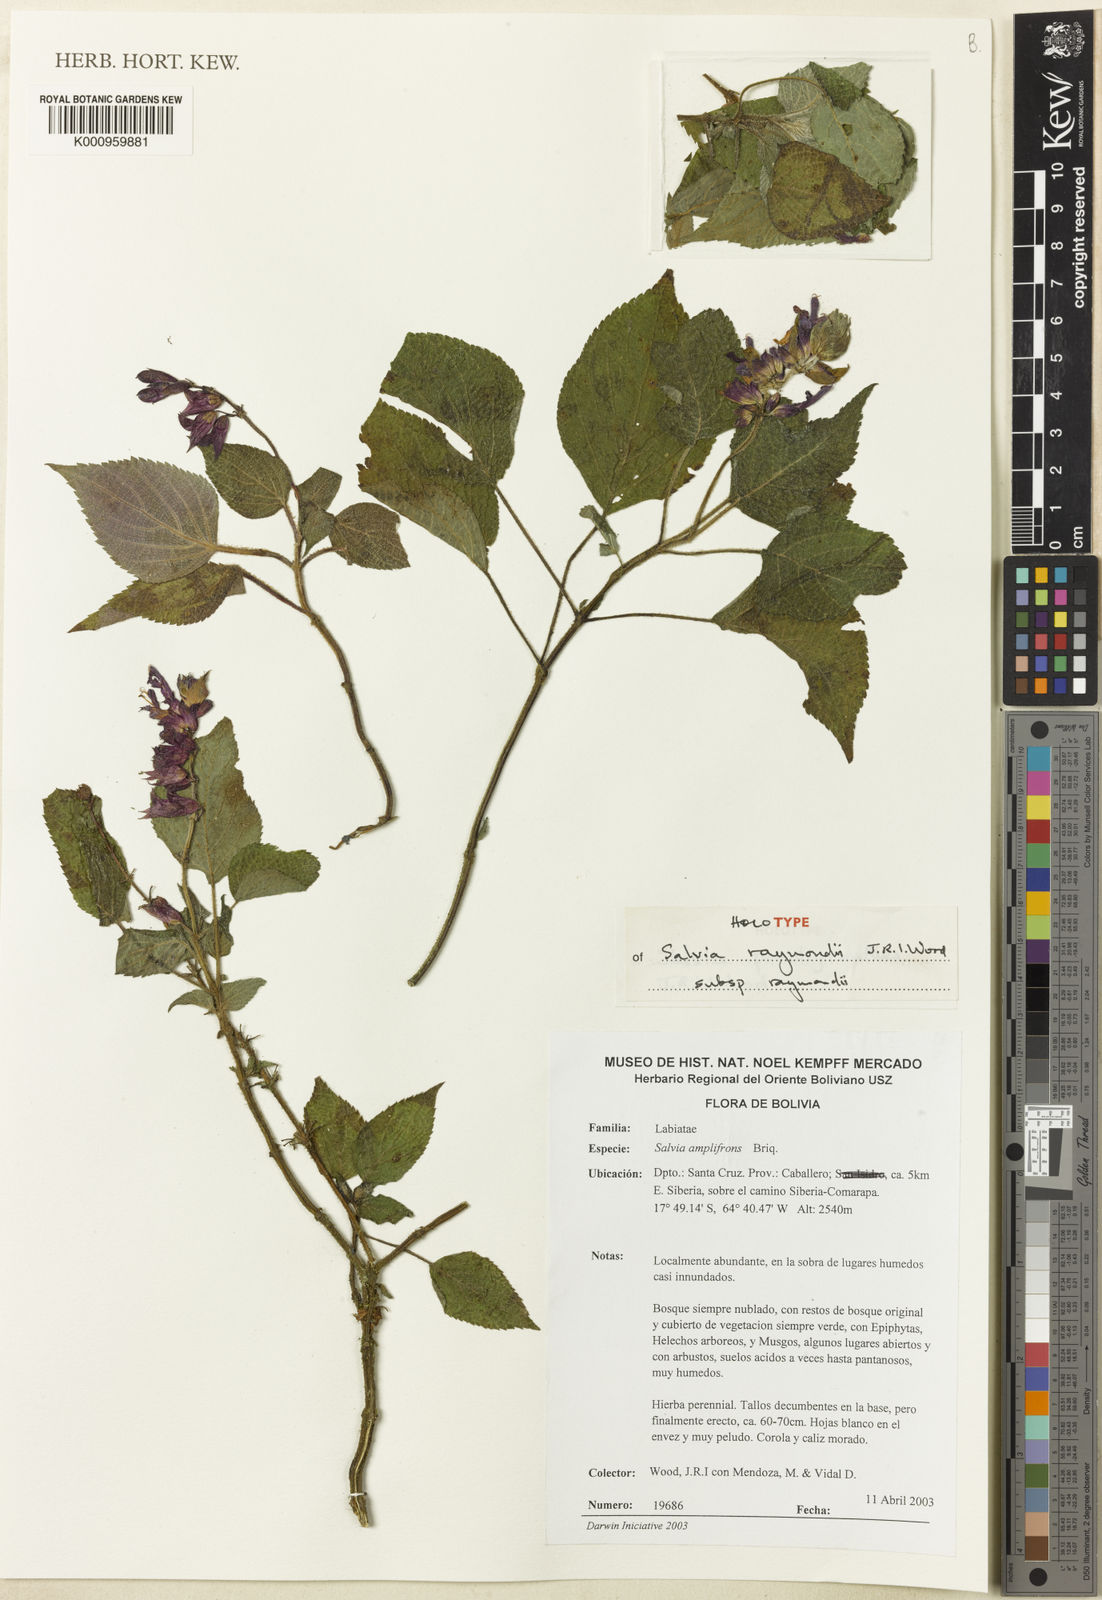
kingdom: Plantae
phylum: Tracheophyta
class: Magnoliopsida
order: Lamiales
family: Lamiaceae
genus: Salvia
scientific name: Salvia raymondii
